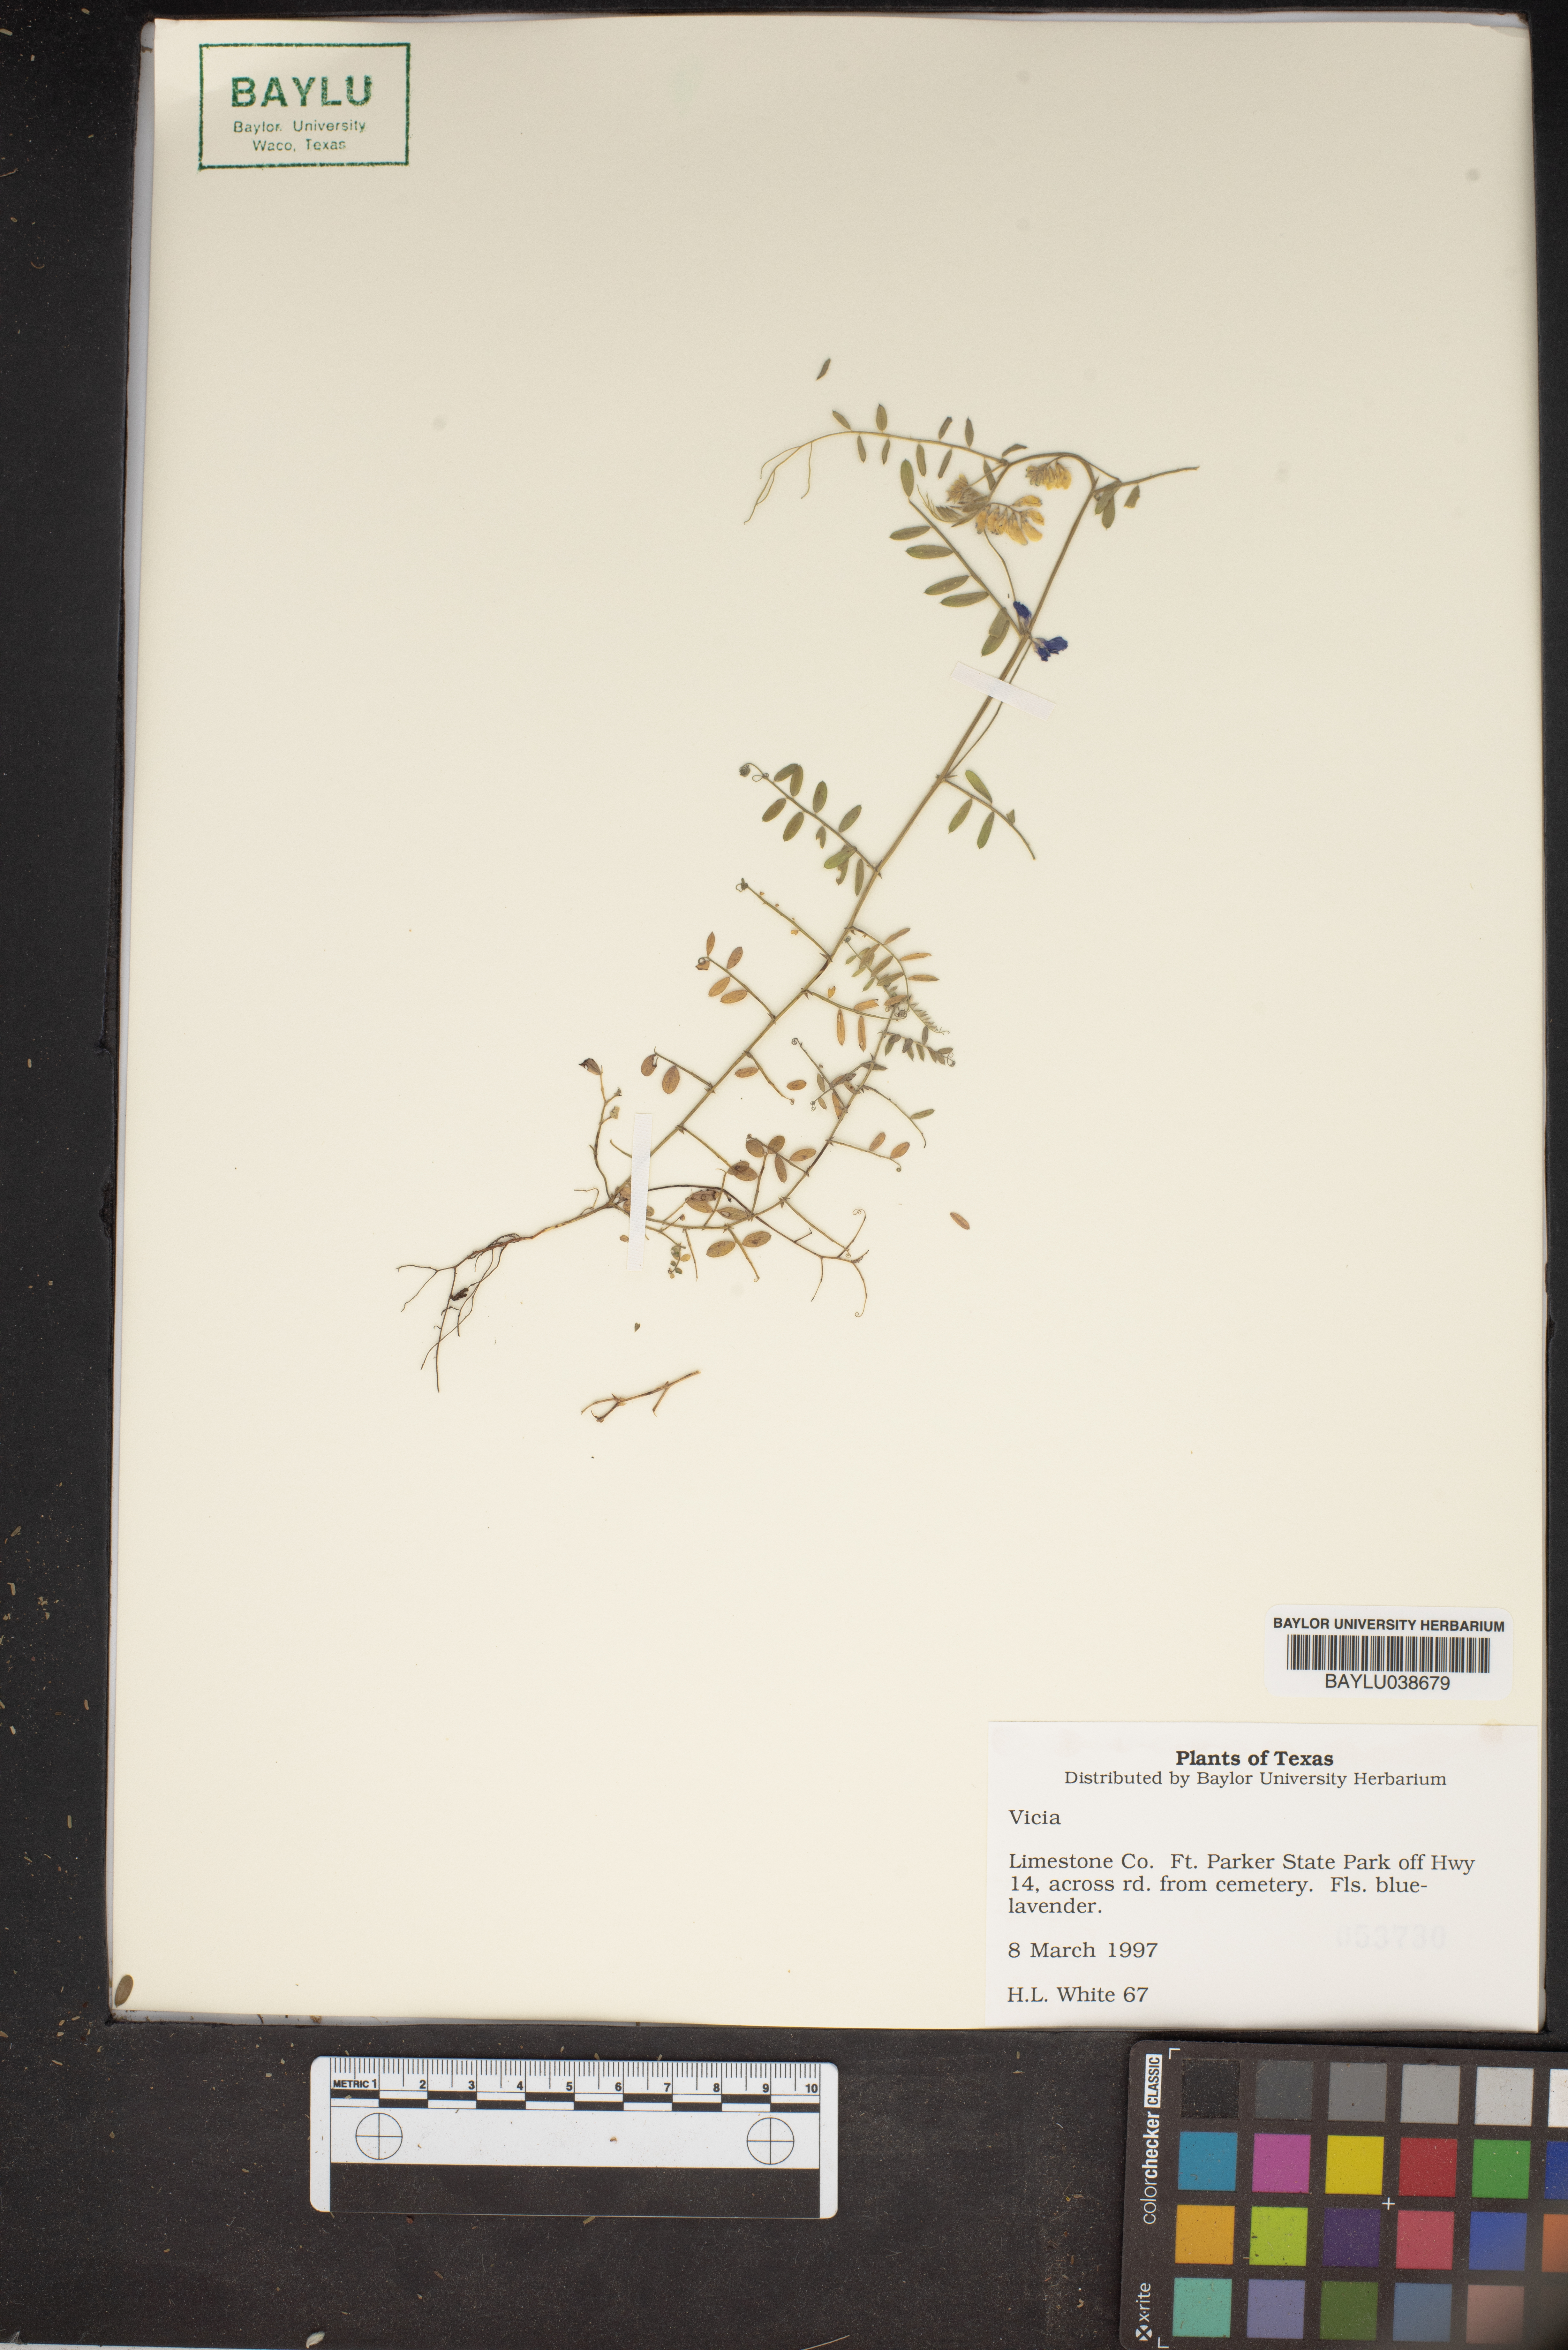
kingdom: Plantae
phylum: Tracheophyta
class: Magnoliopsida
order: Fabales
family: Fabaceae
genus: Vicia
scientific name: Vicia
